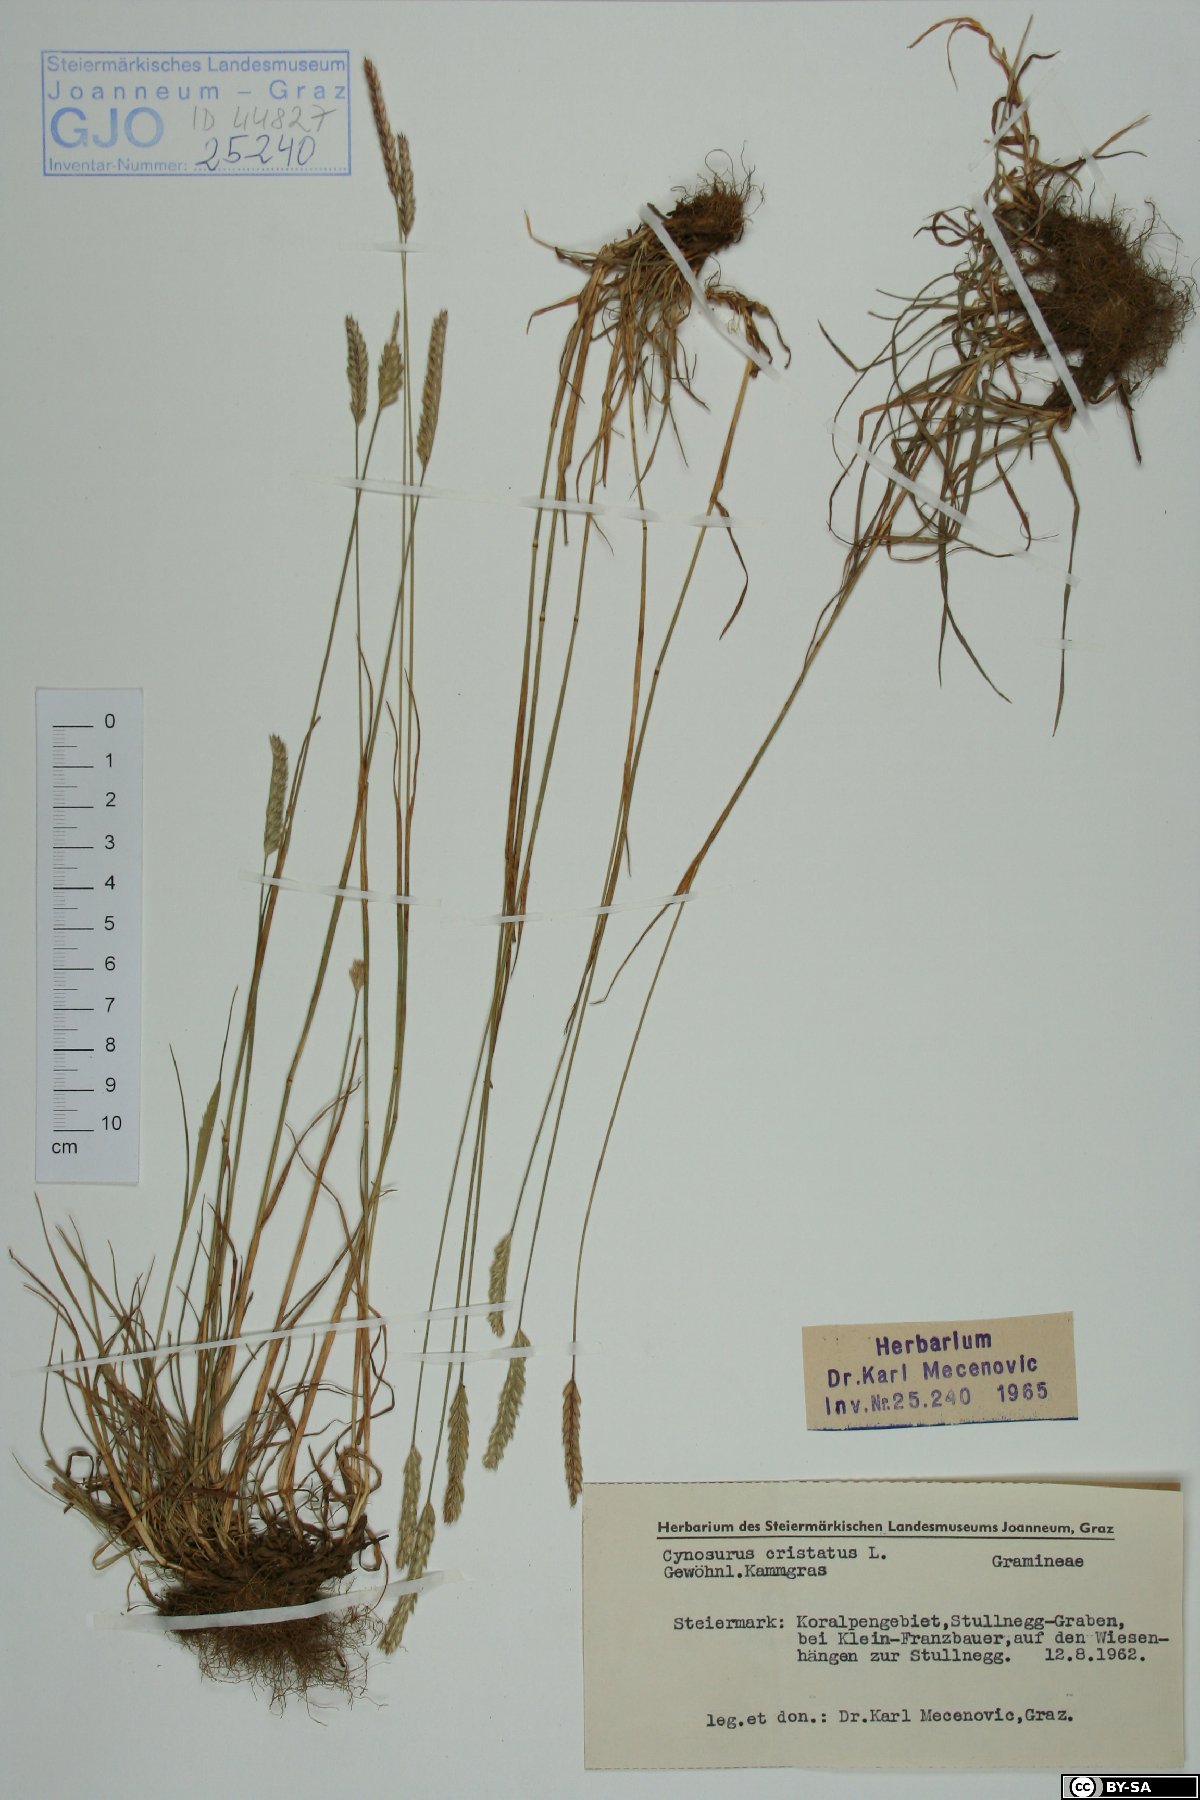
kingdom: Plantae
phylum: Tracheophyta
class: Liliopsida
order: Poales
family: Poaceae
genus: Cynosurus
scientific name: Cynosurus cristatus
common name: Crested dog's-tail
